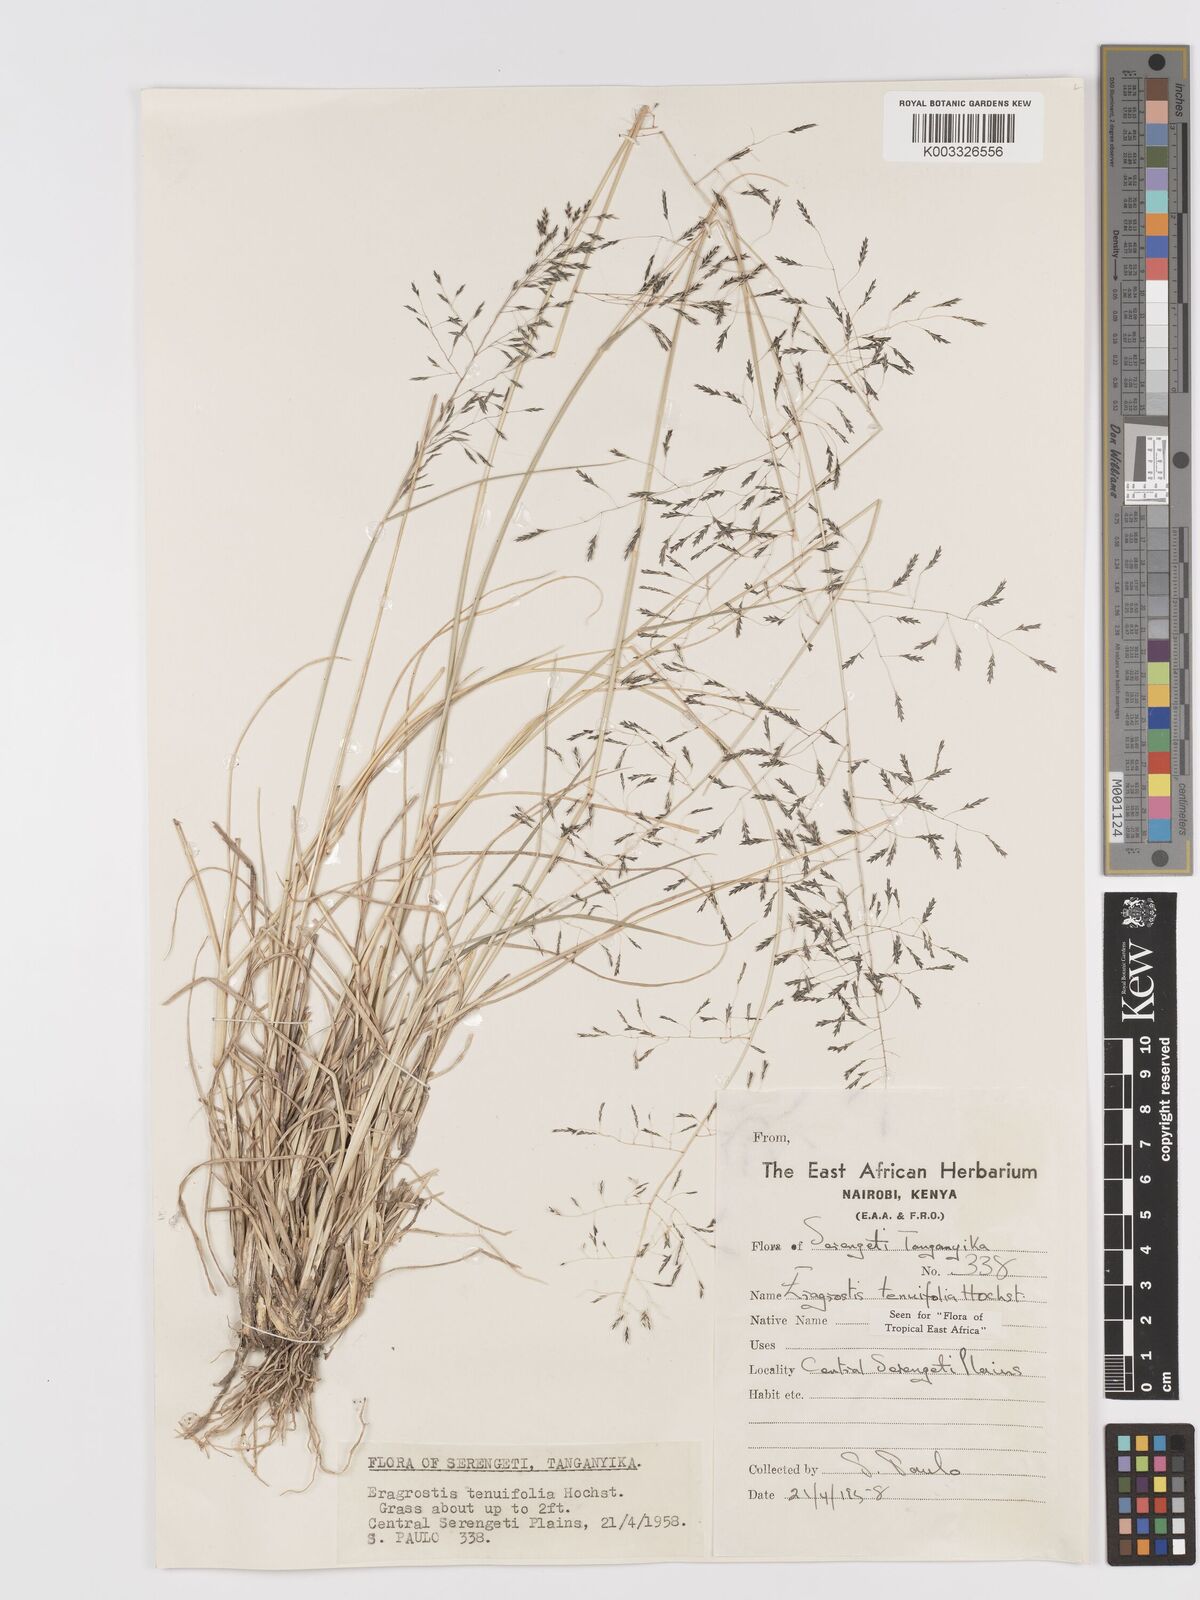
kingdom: Plantae
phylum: Tracheophyta
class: Liliopsida
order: Poales
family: Poaceae
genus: Eragrostis
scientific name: Eragrostis tenuifolia
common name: Elastic grass
